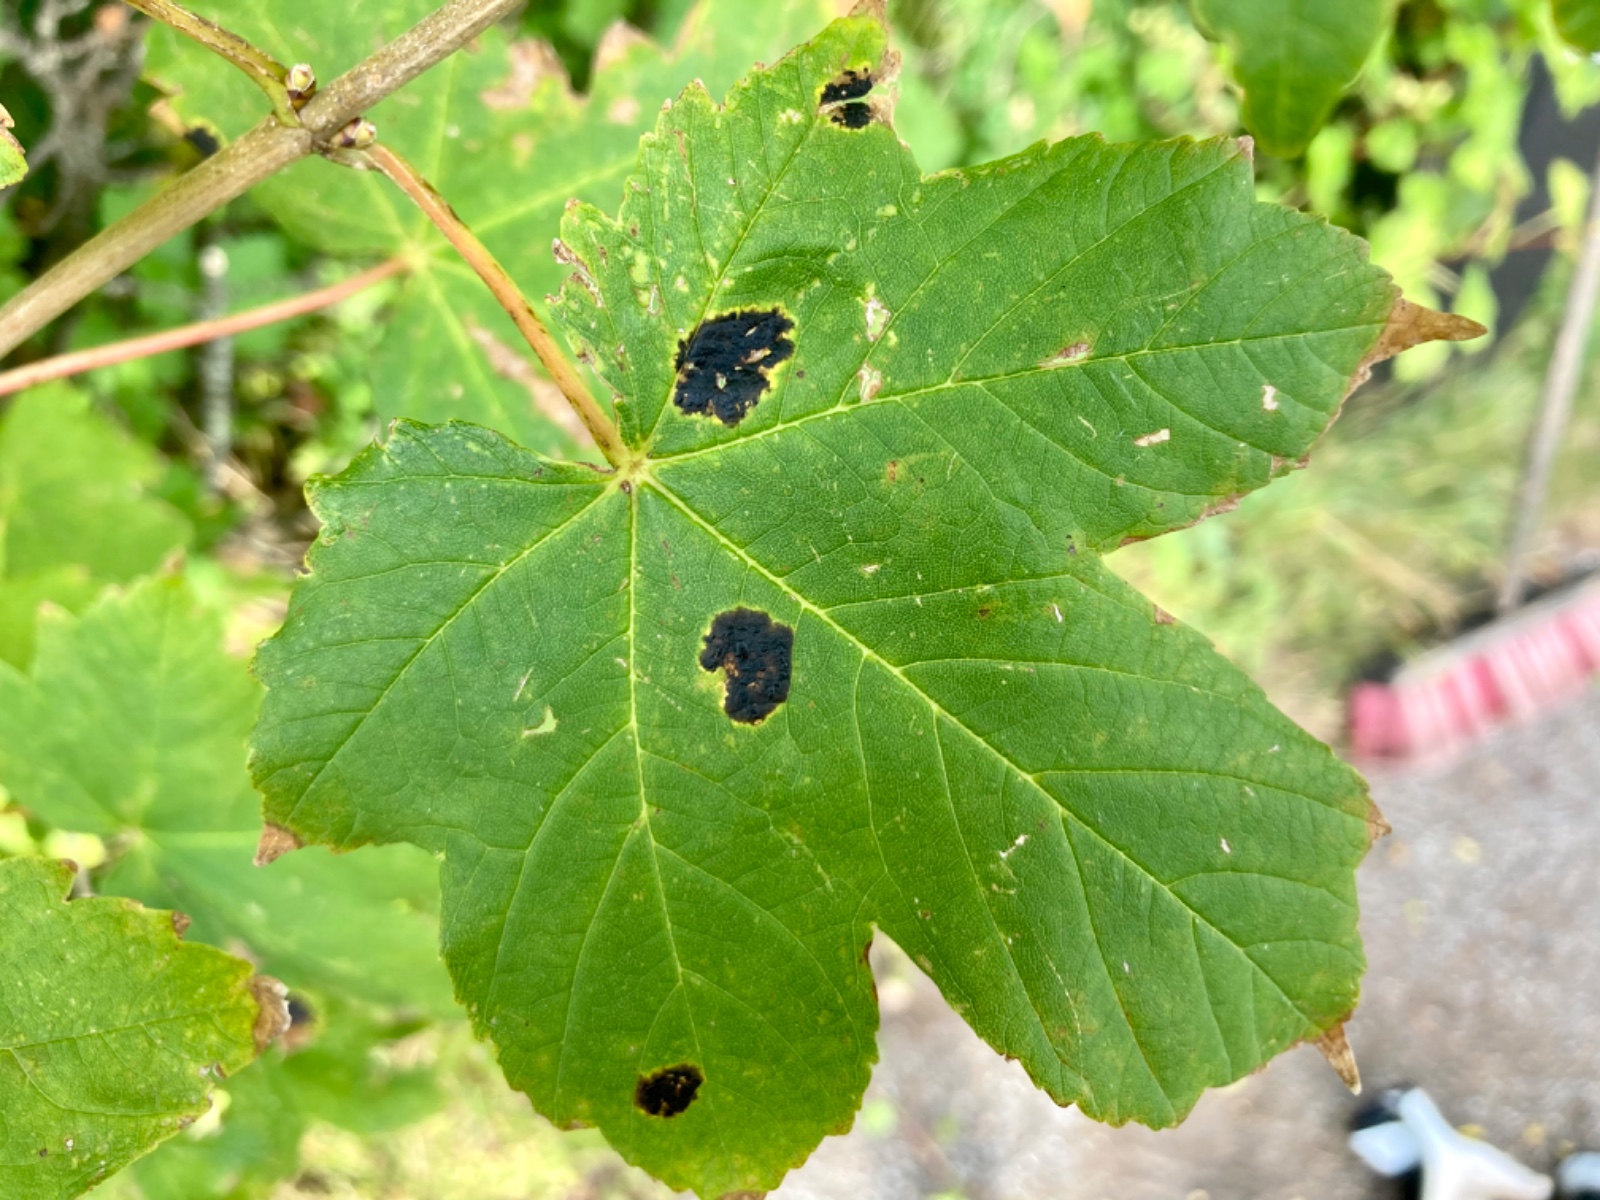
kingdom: Fungi
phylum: Ascomycota
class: Leotiomycetes
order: Rhytismatales
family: Rhytismataceae
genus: Rhytisma
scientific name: Rhytisma acerinum
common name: ahorn-rynkeplet
